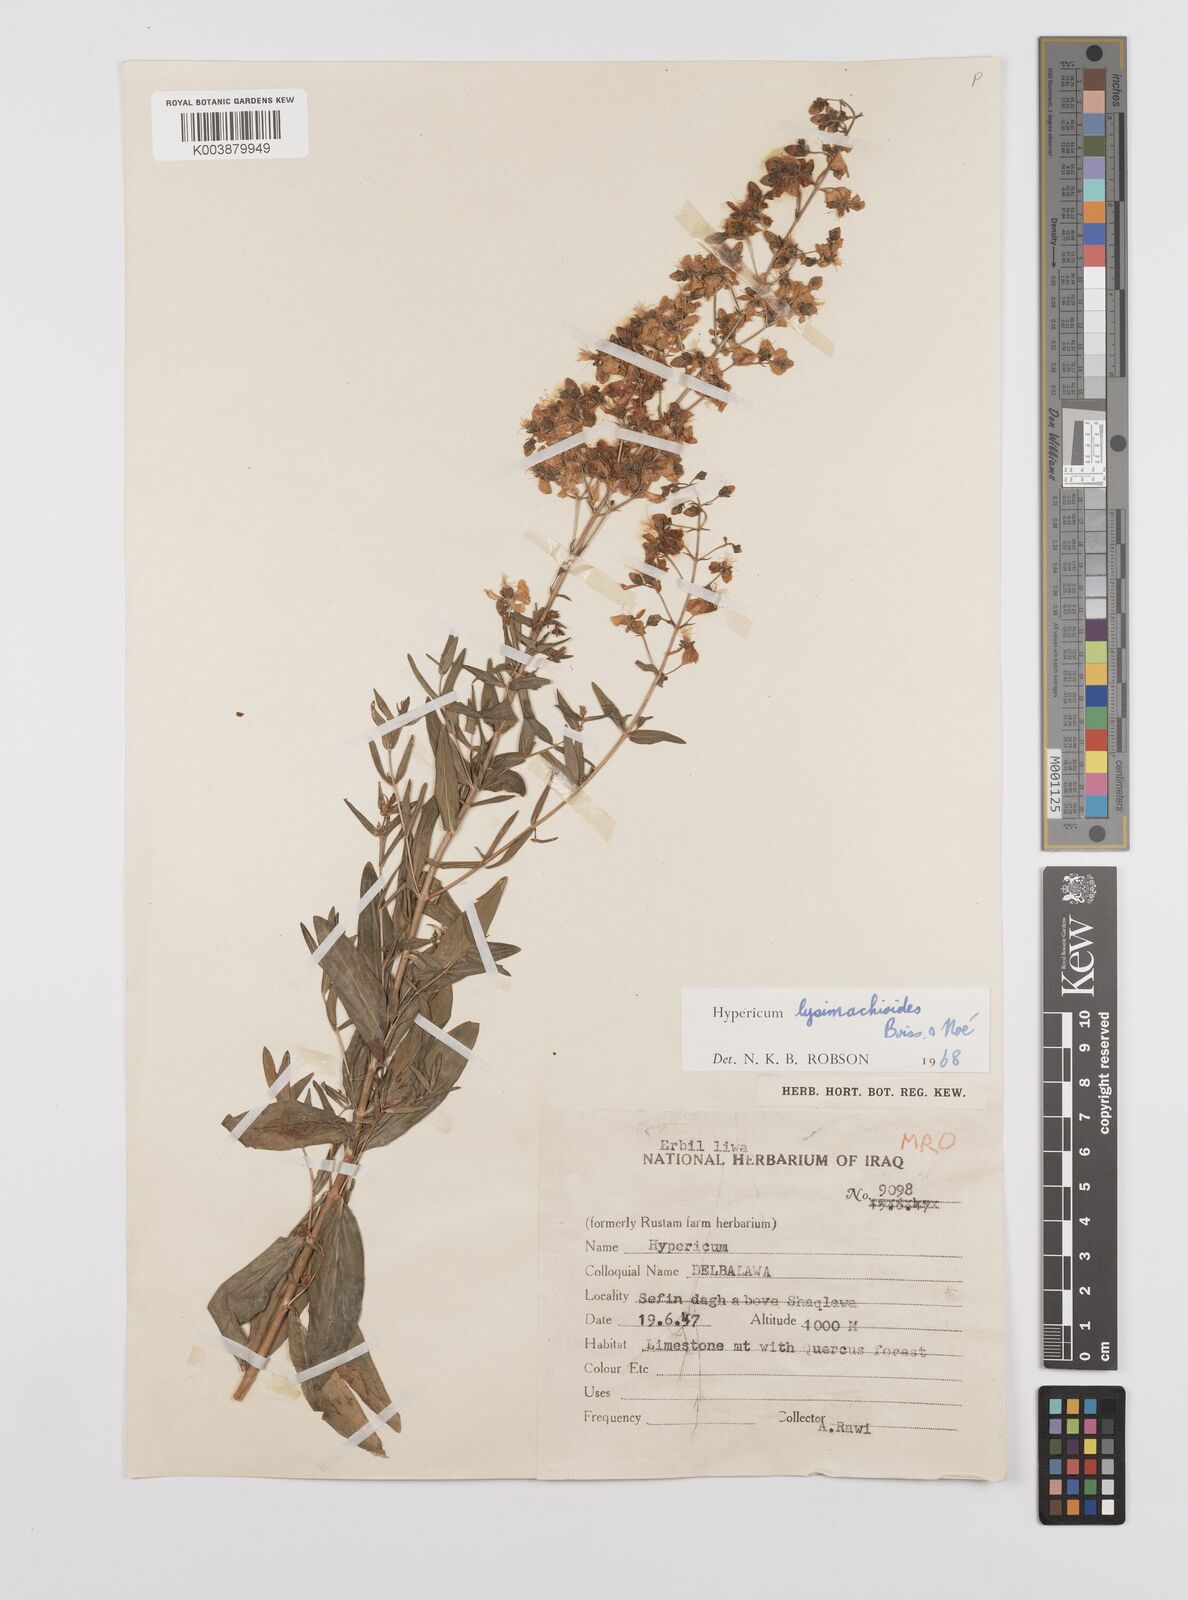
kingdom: Plantae
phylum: Tracheophyta
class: Magnoliopsida
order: Malpighiales
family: Hypericaceae
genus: Hypericum
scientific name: Hypericum lysimachioides
